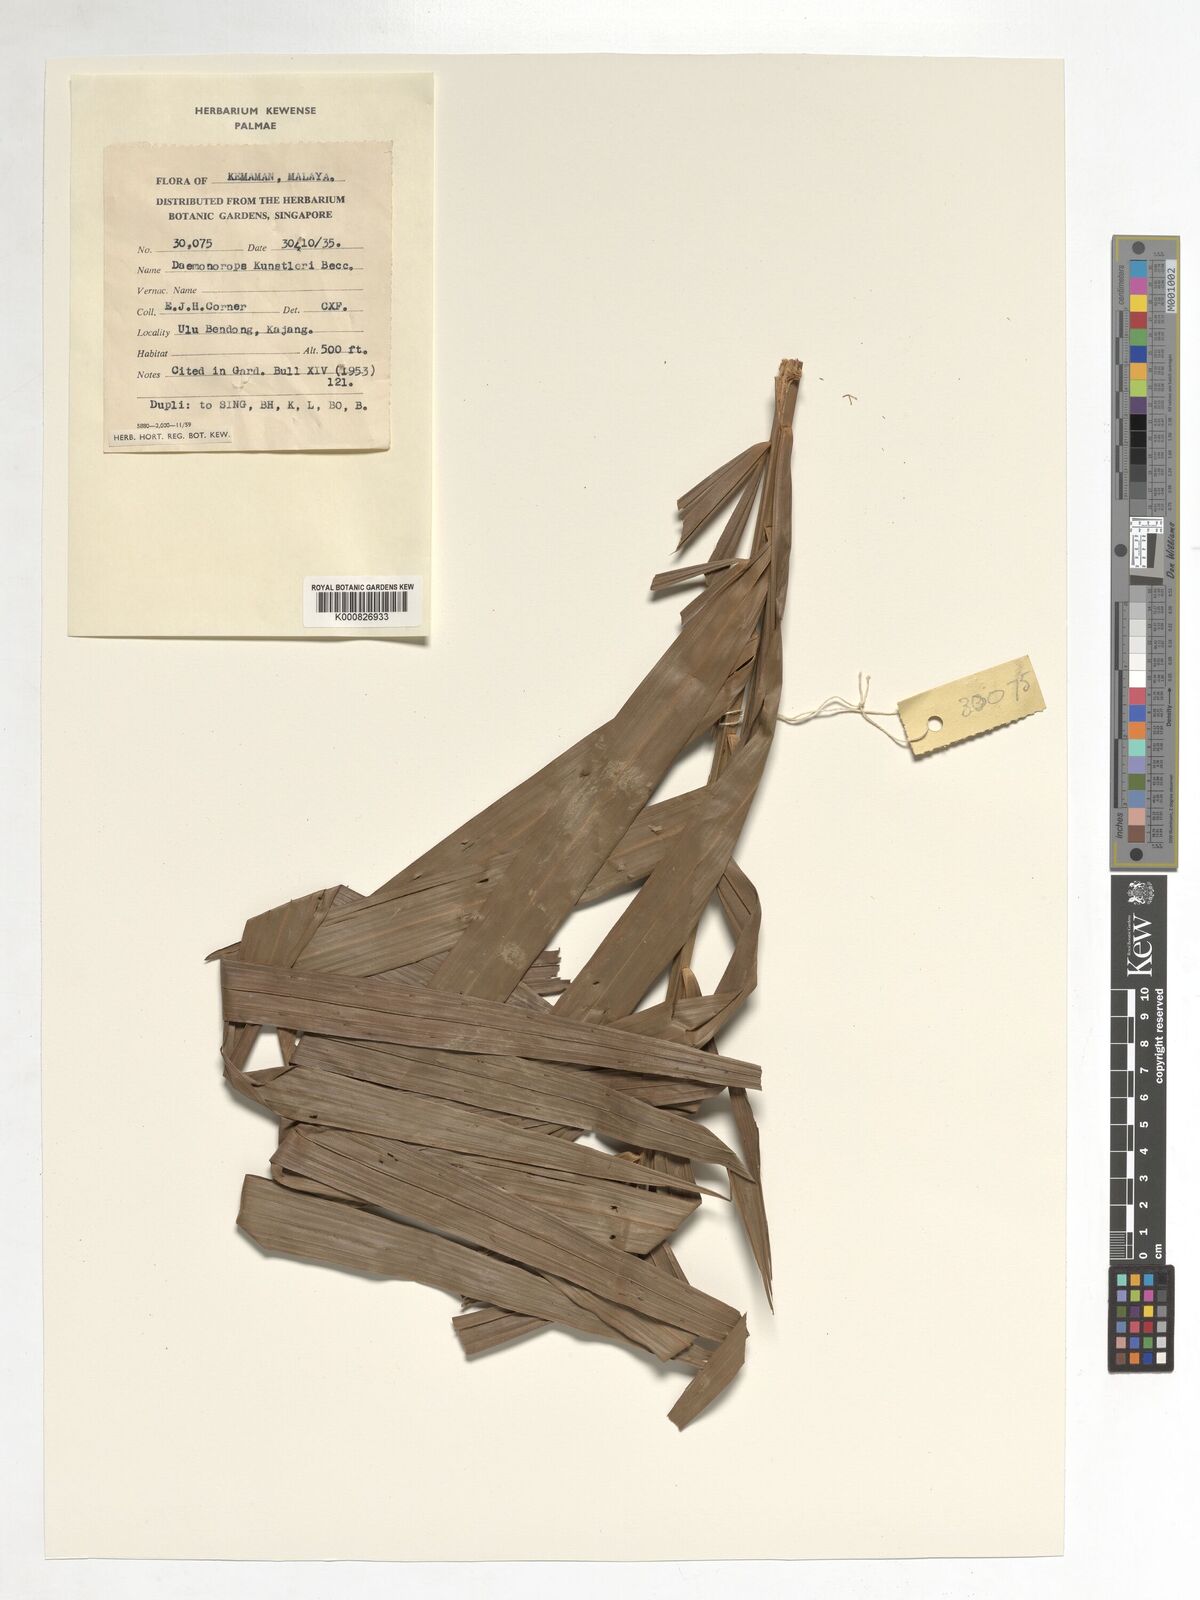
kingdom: Plantae
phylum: Tracheophyta
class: Liliopsida
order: Arecales
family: Arecaceae
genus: Calamus
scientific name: Calamus kunstleri
